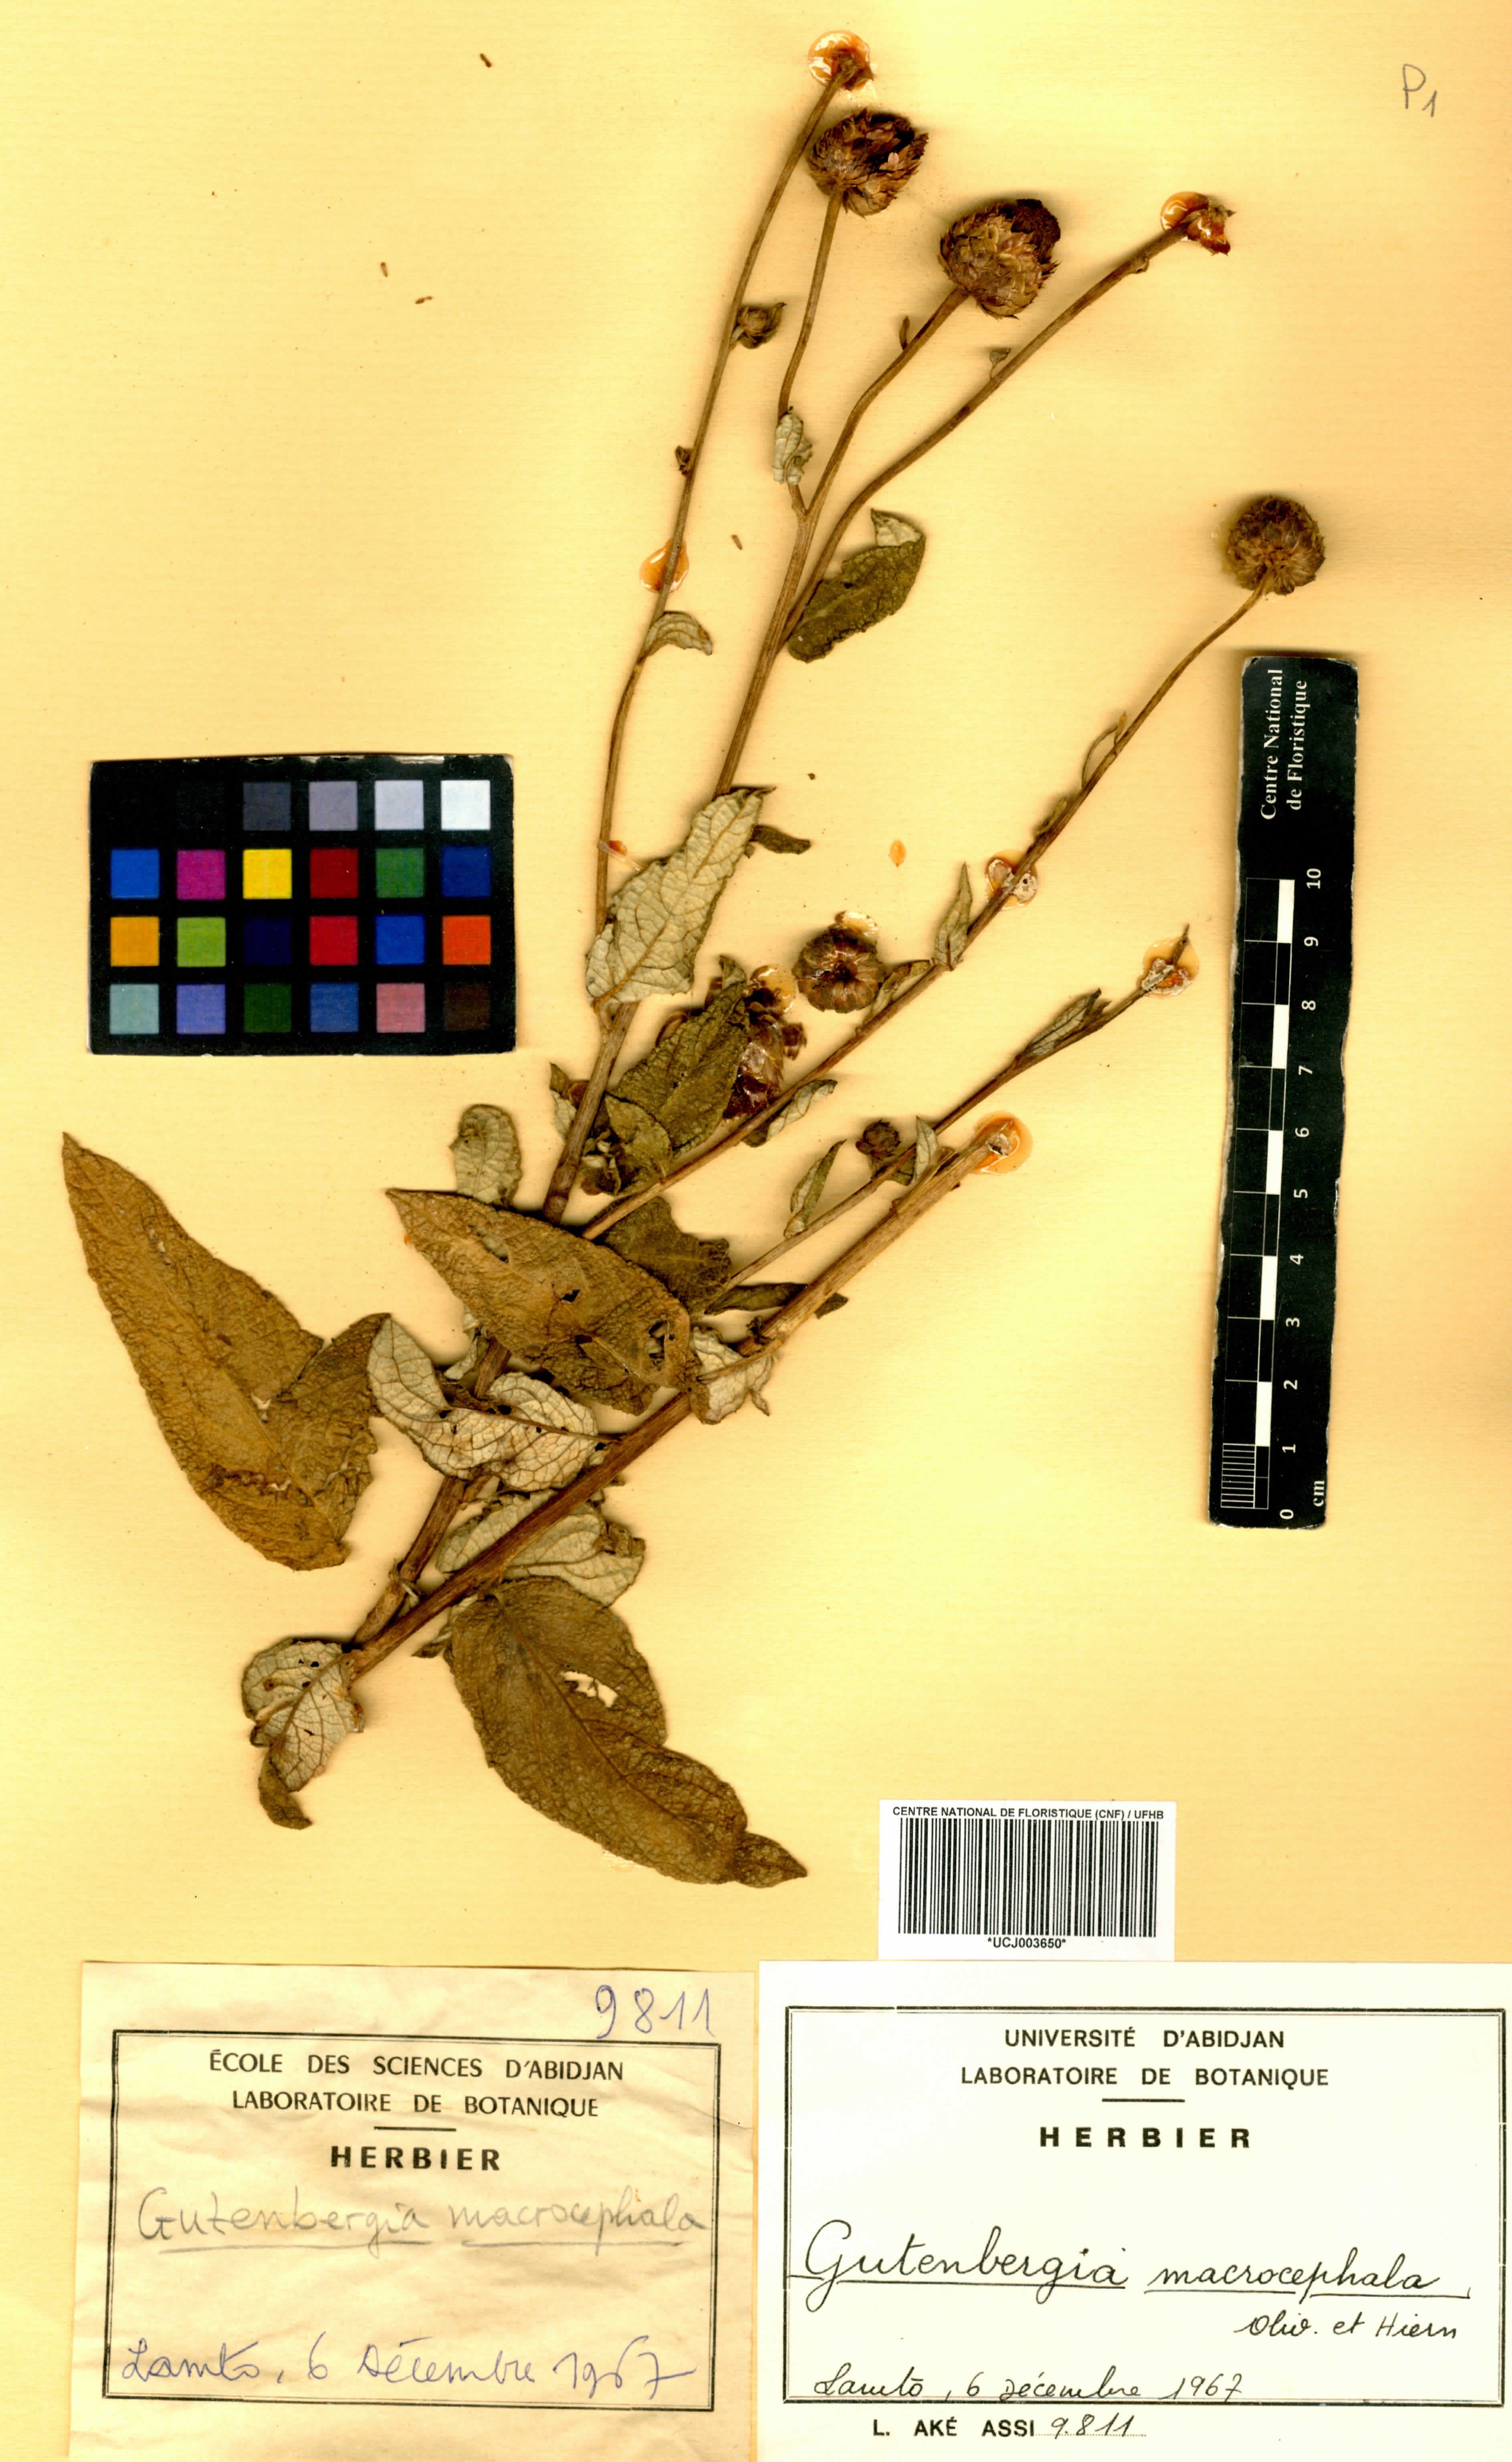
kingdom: Plantae
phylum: Tracheophyta
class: Magnoliopsida
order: Asterales
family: Asteraceae
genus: Kinghamia
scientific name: Kinghamia macrocephala
